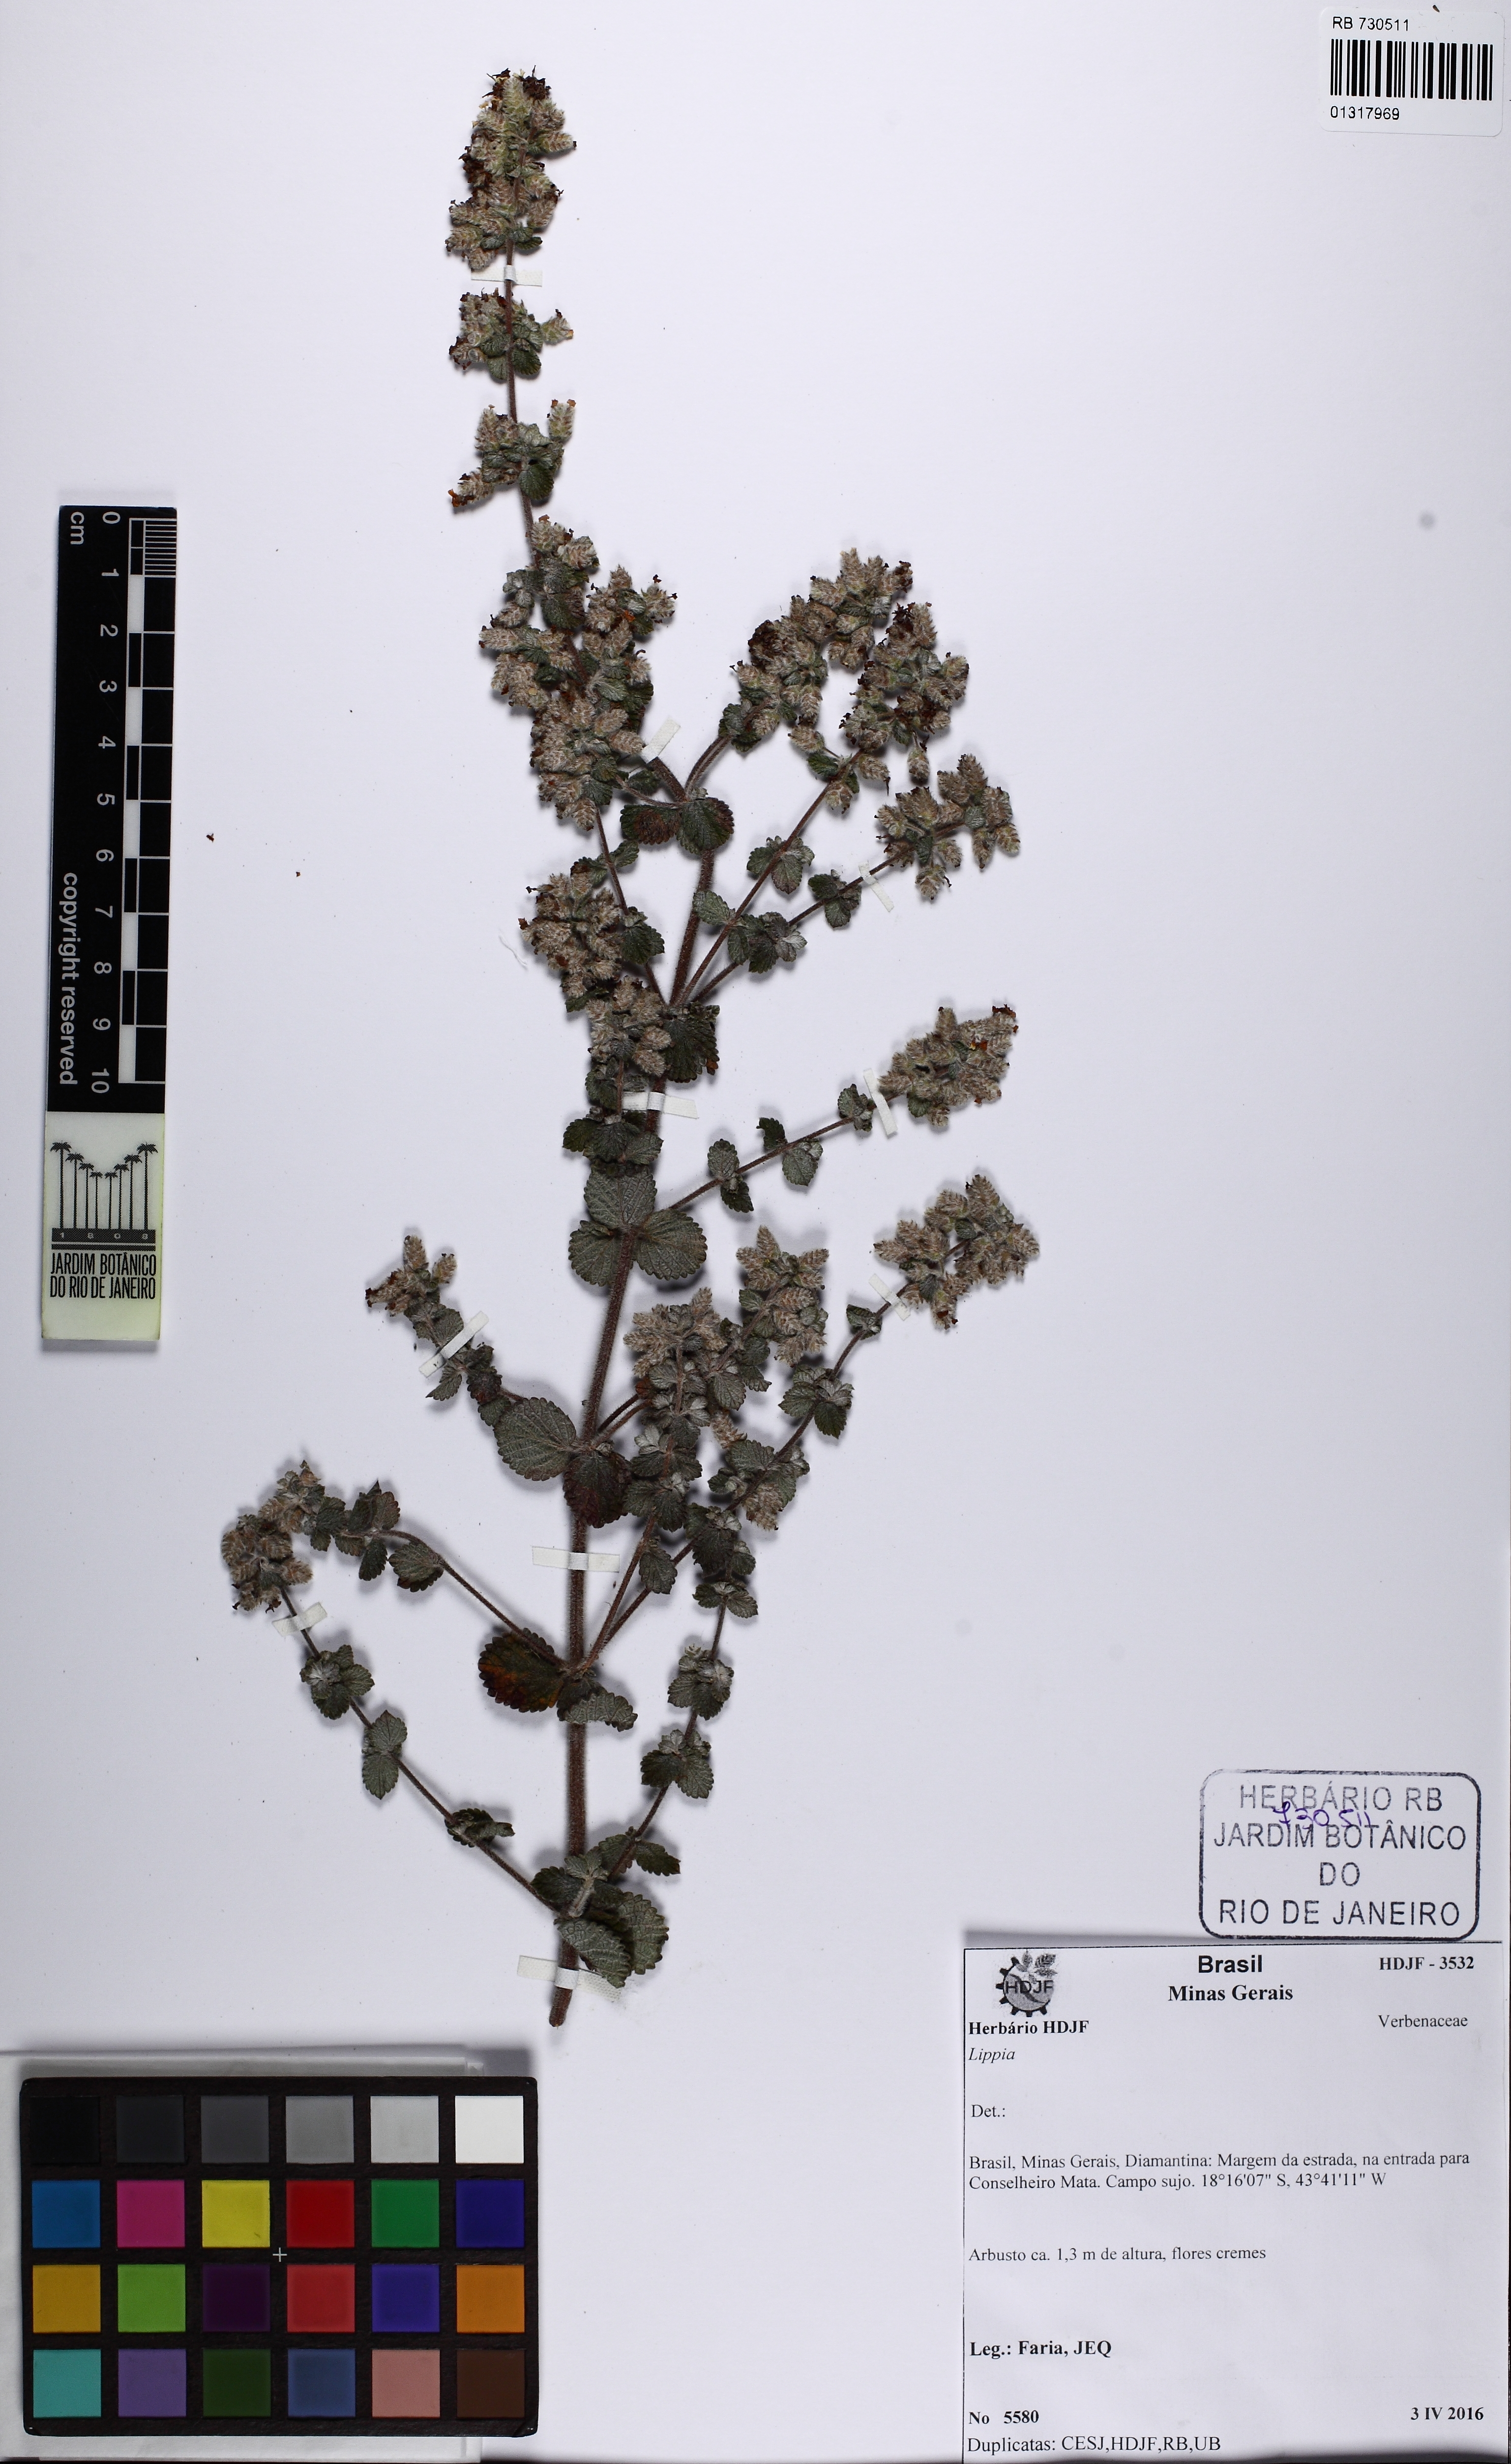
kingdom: Plantae
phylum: Tracheophyta
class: Magnoliopsida
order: Lamiales
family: Verbenaceae
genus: Lippia
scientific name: Lippia
